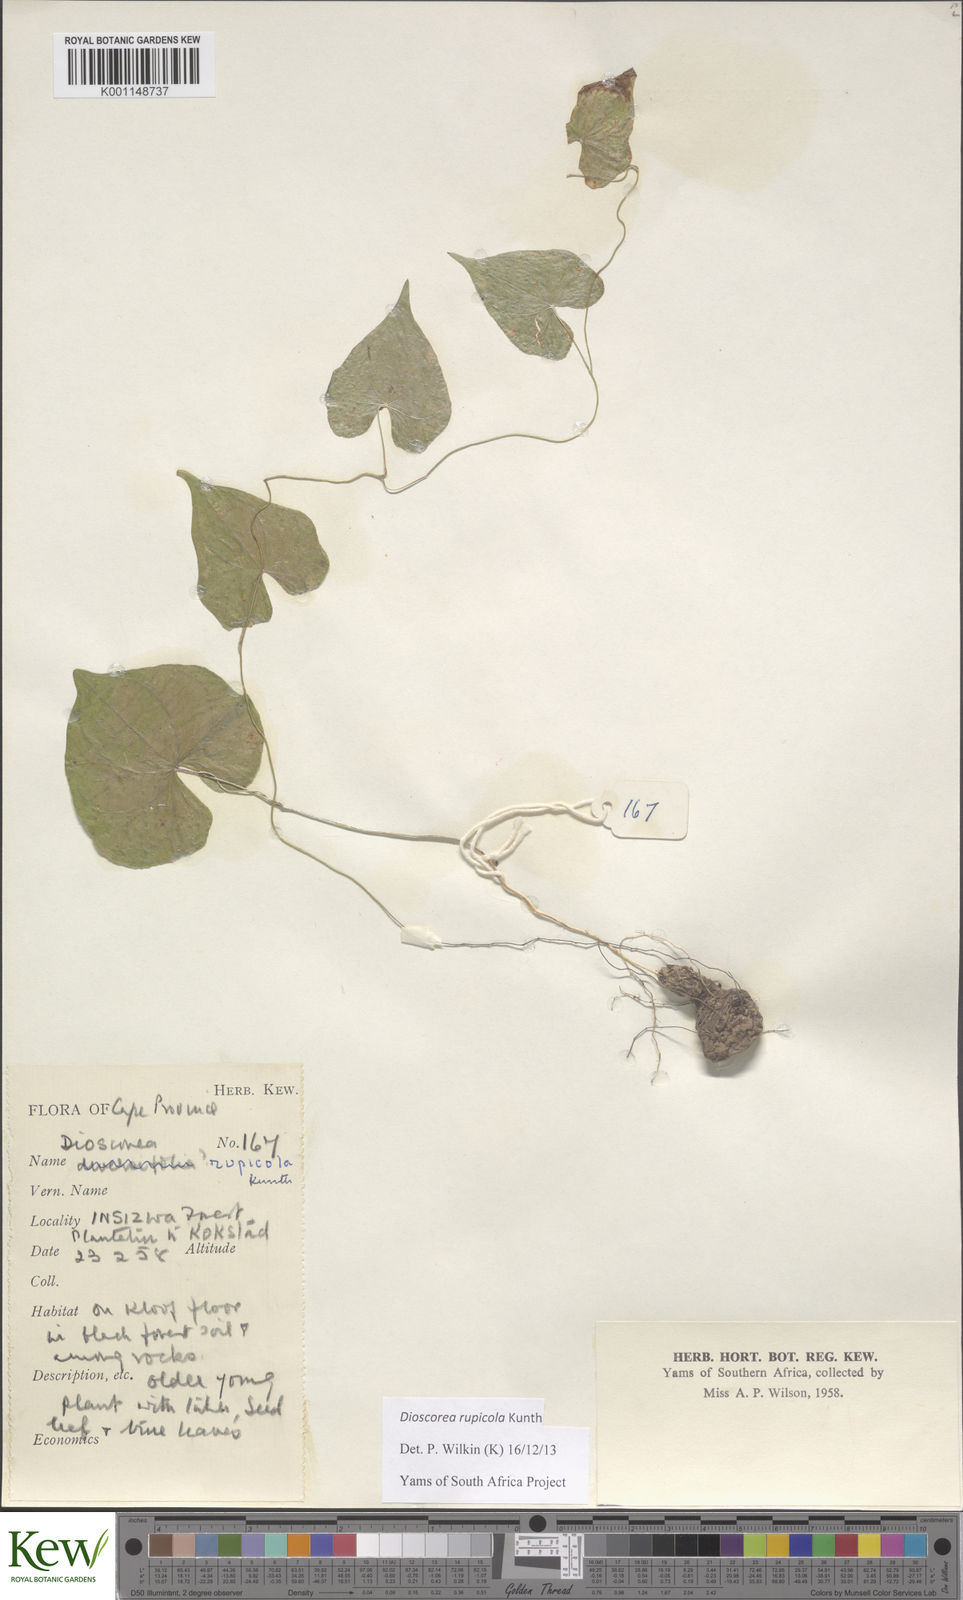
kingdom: Plantae
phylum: Tracheophyta
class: Liliopsida
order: Dioscoreales
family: Dioscoreaceae
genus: Dioscorea
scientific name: Dioscorea rupicola
